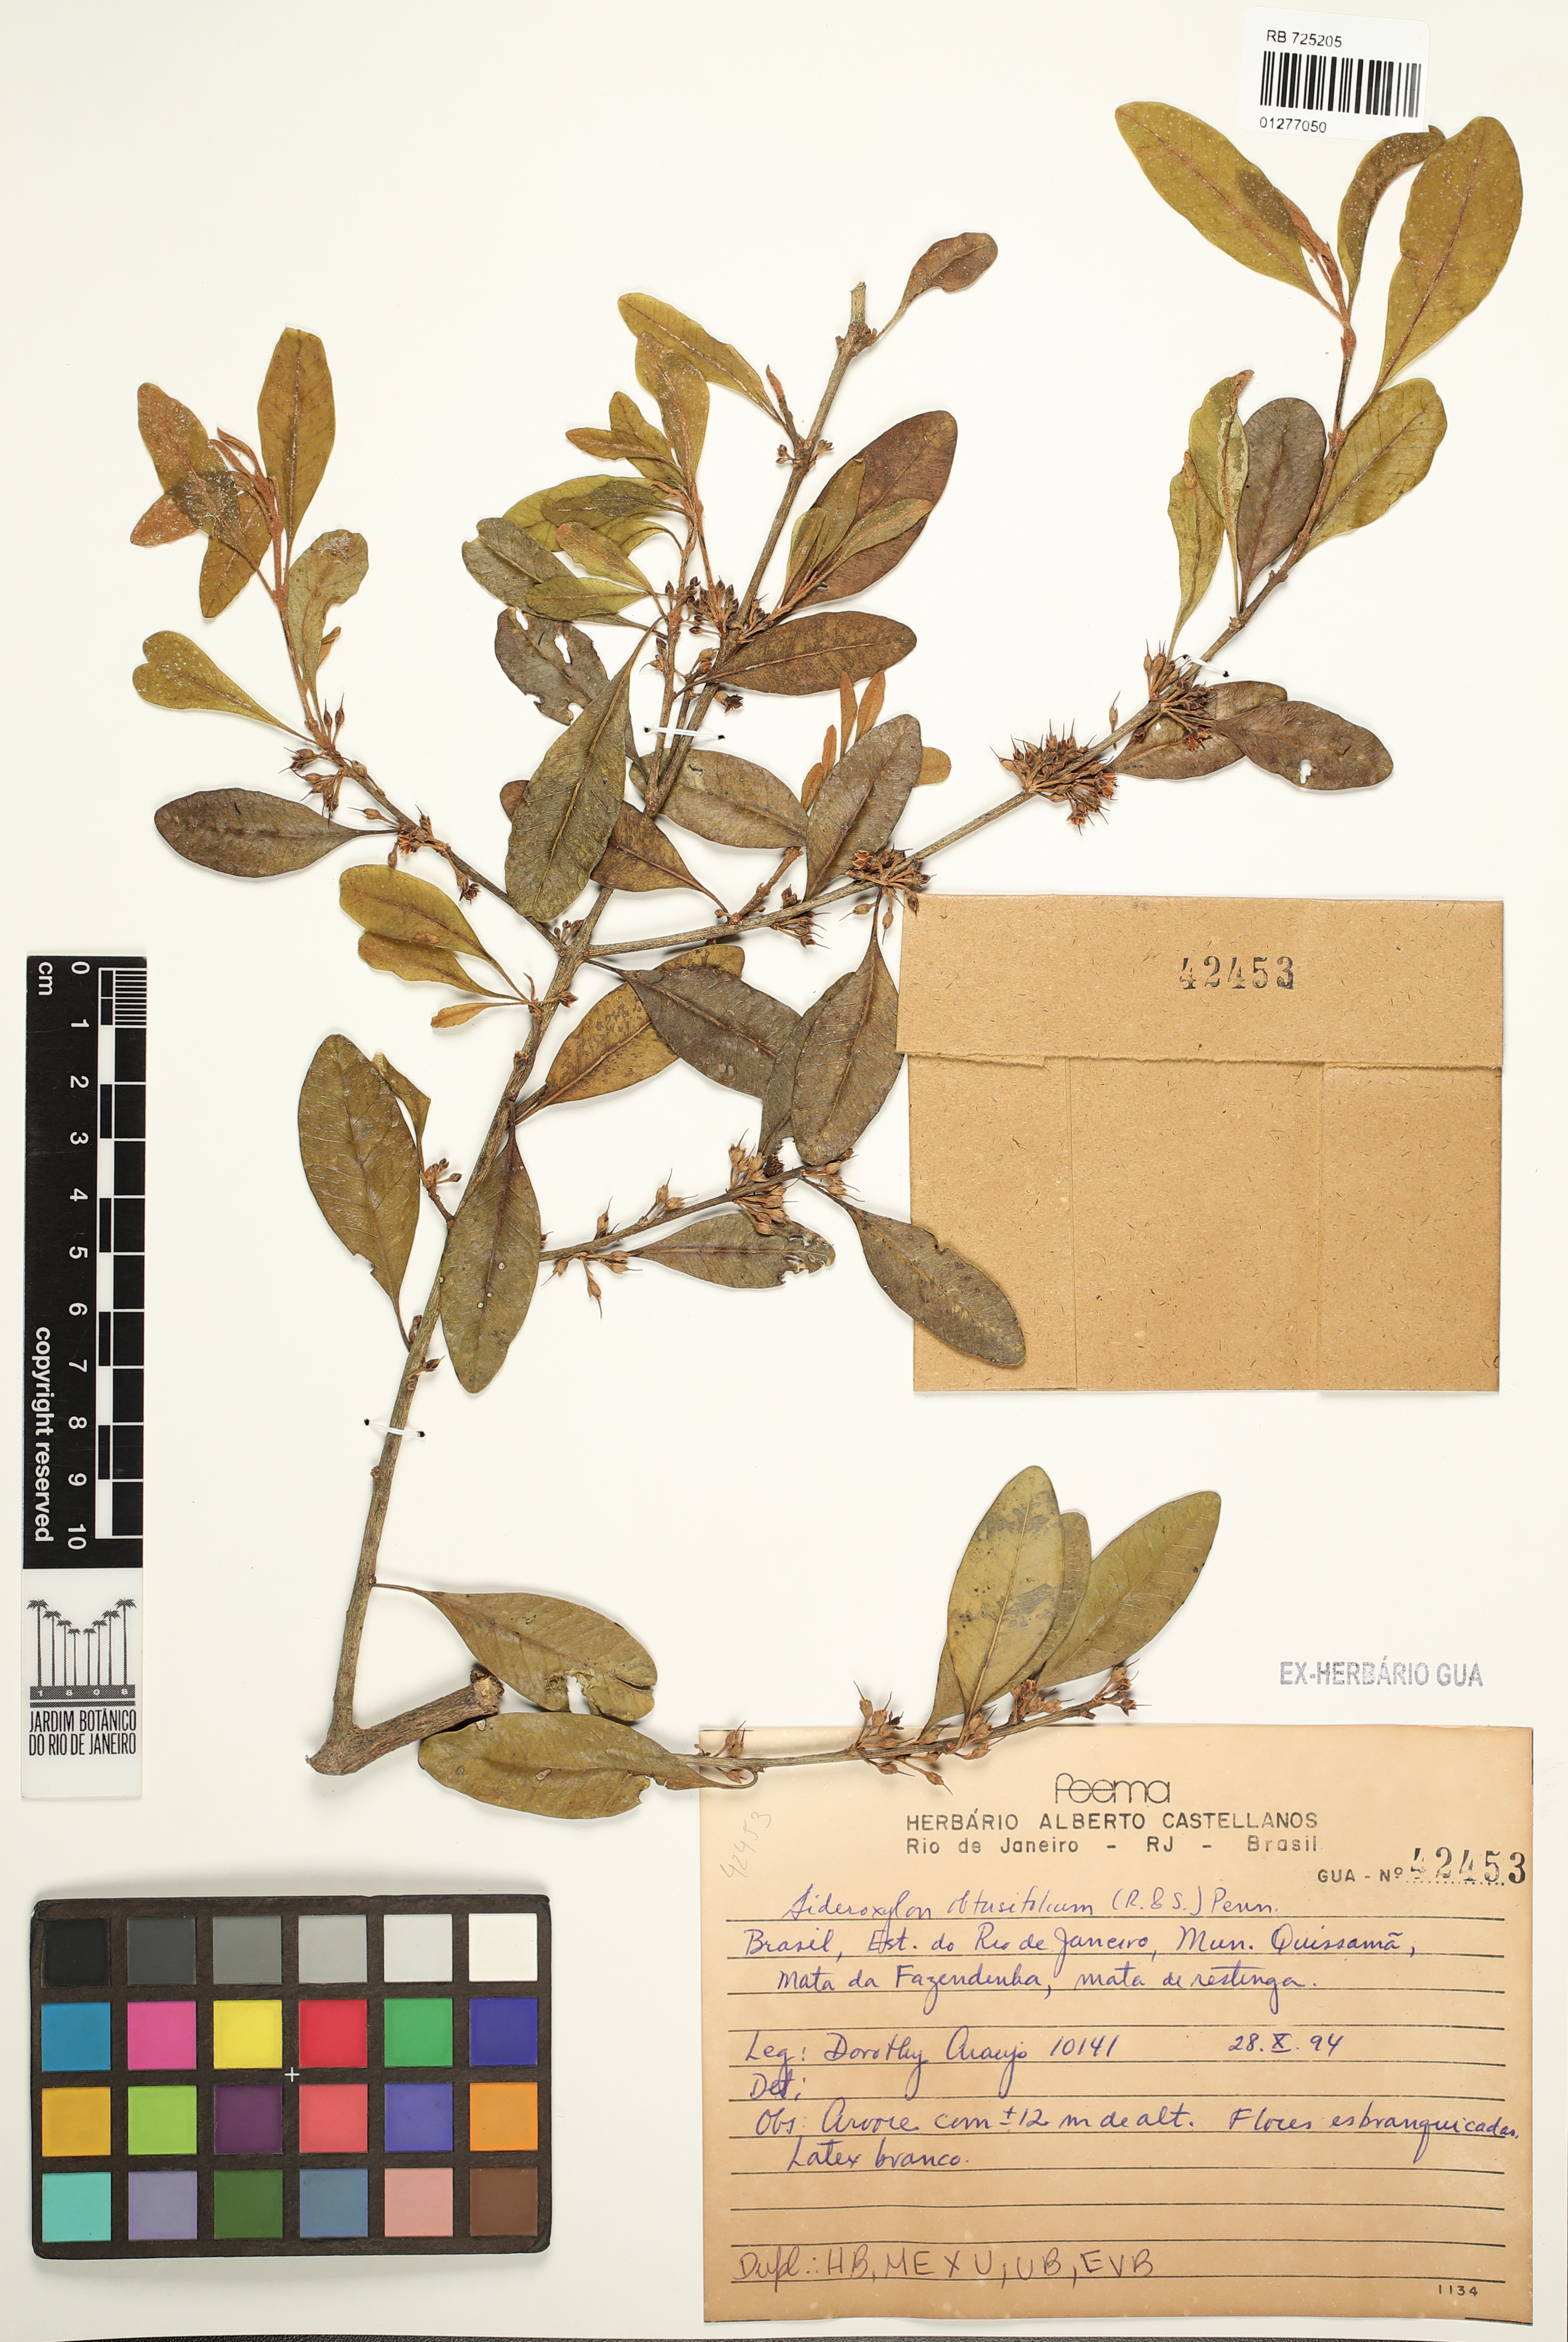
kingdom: Plantae
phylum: Tracheophyta
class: Magnoliopsida
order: Ericales
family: Sapotaceae
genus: Sideroxylon
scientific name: Sideroxylon obtusifolium
